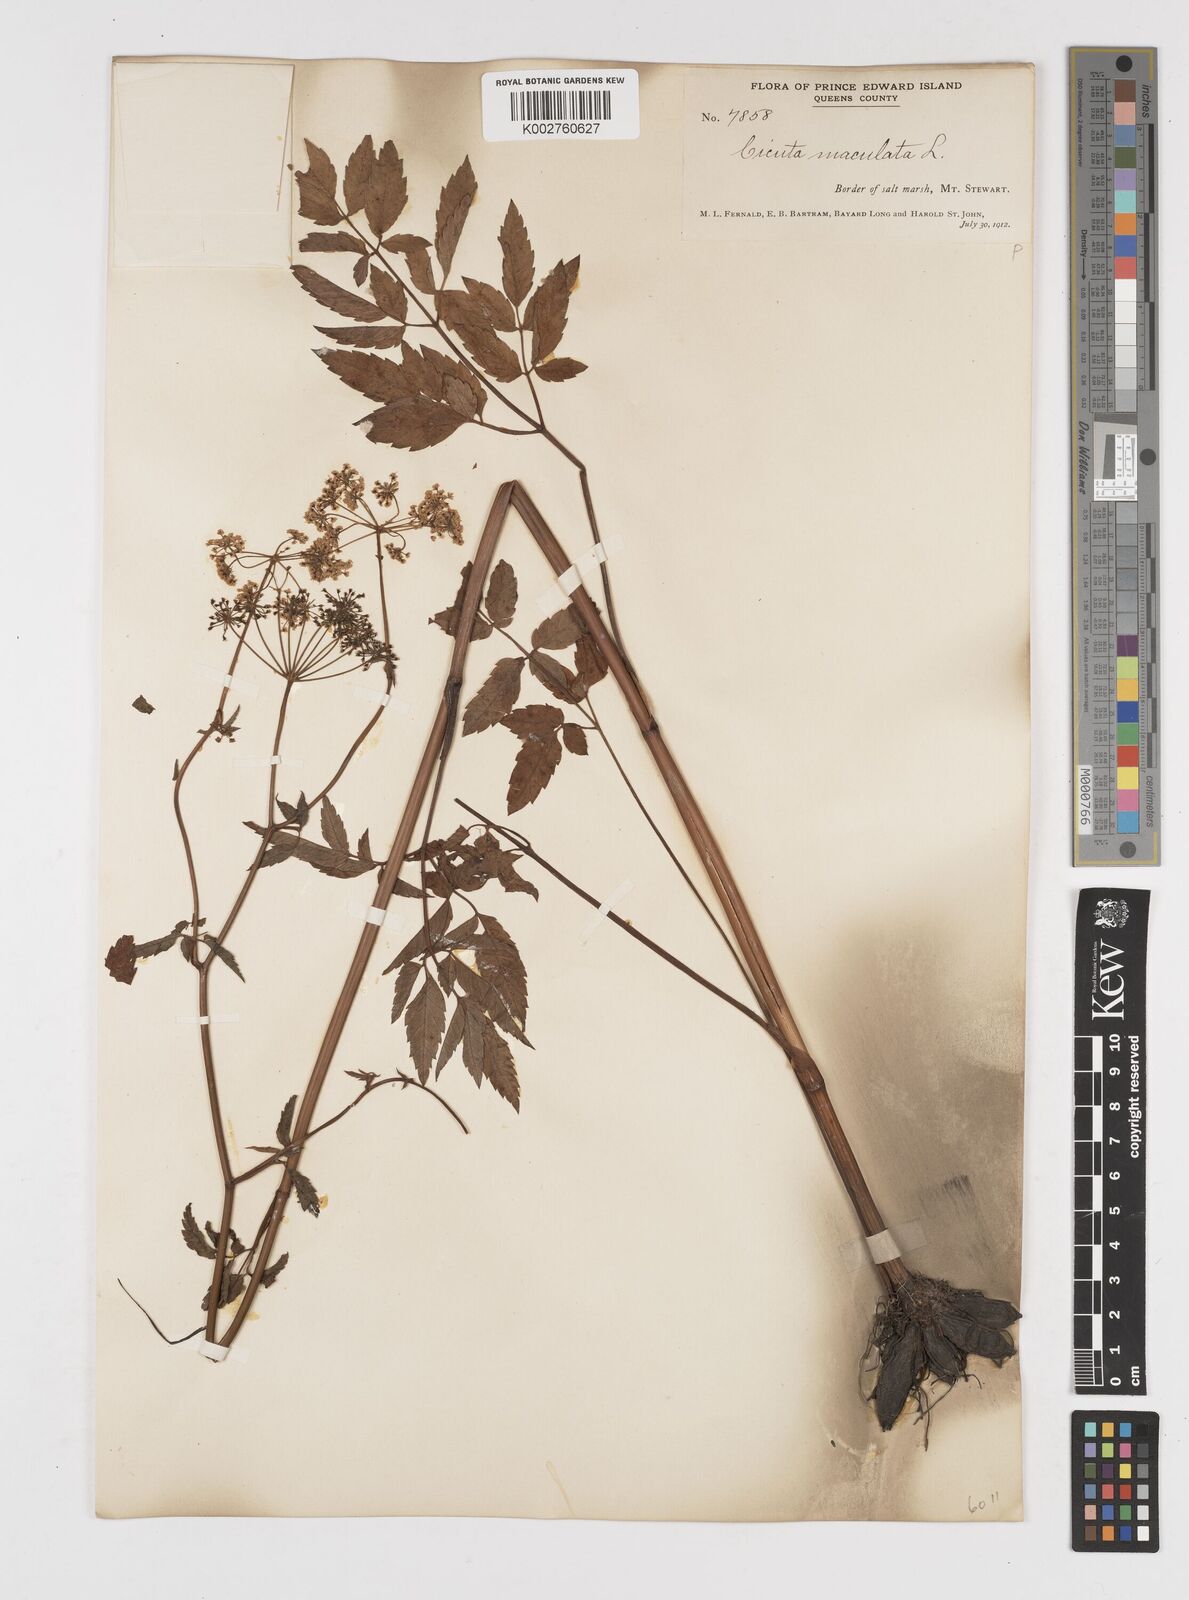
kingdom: Plantae
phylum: Tracheophyta
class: Magnoliopsida
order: Apiales
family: Apiaceae
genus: Cicuta
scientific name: Cicuta maculata
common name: Spotted cowbane
